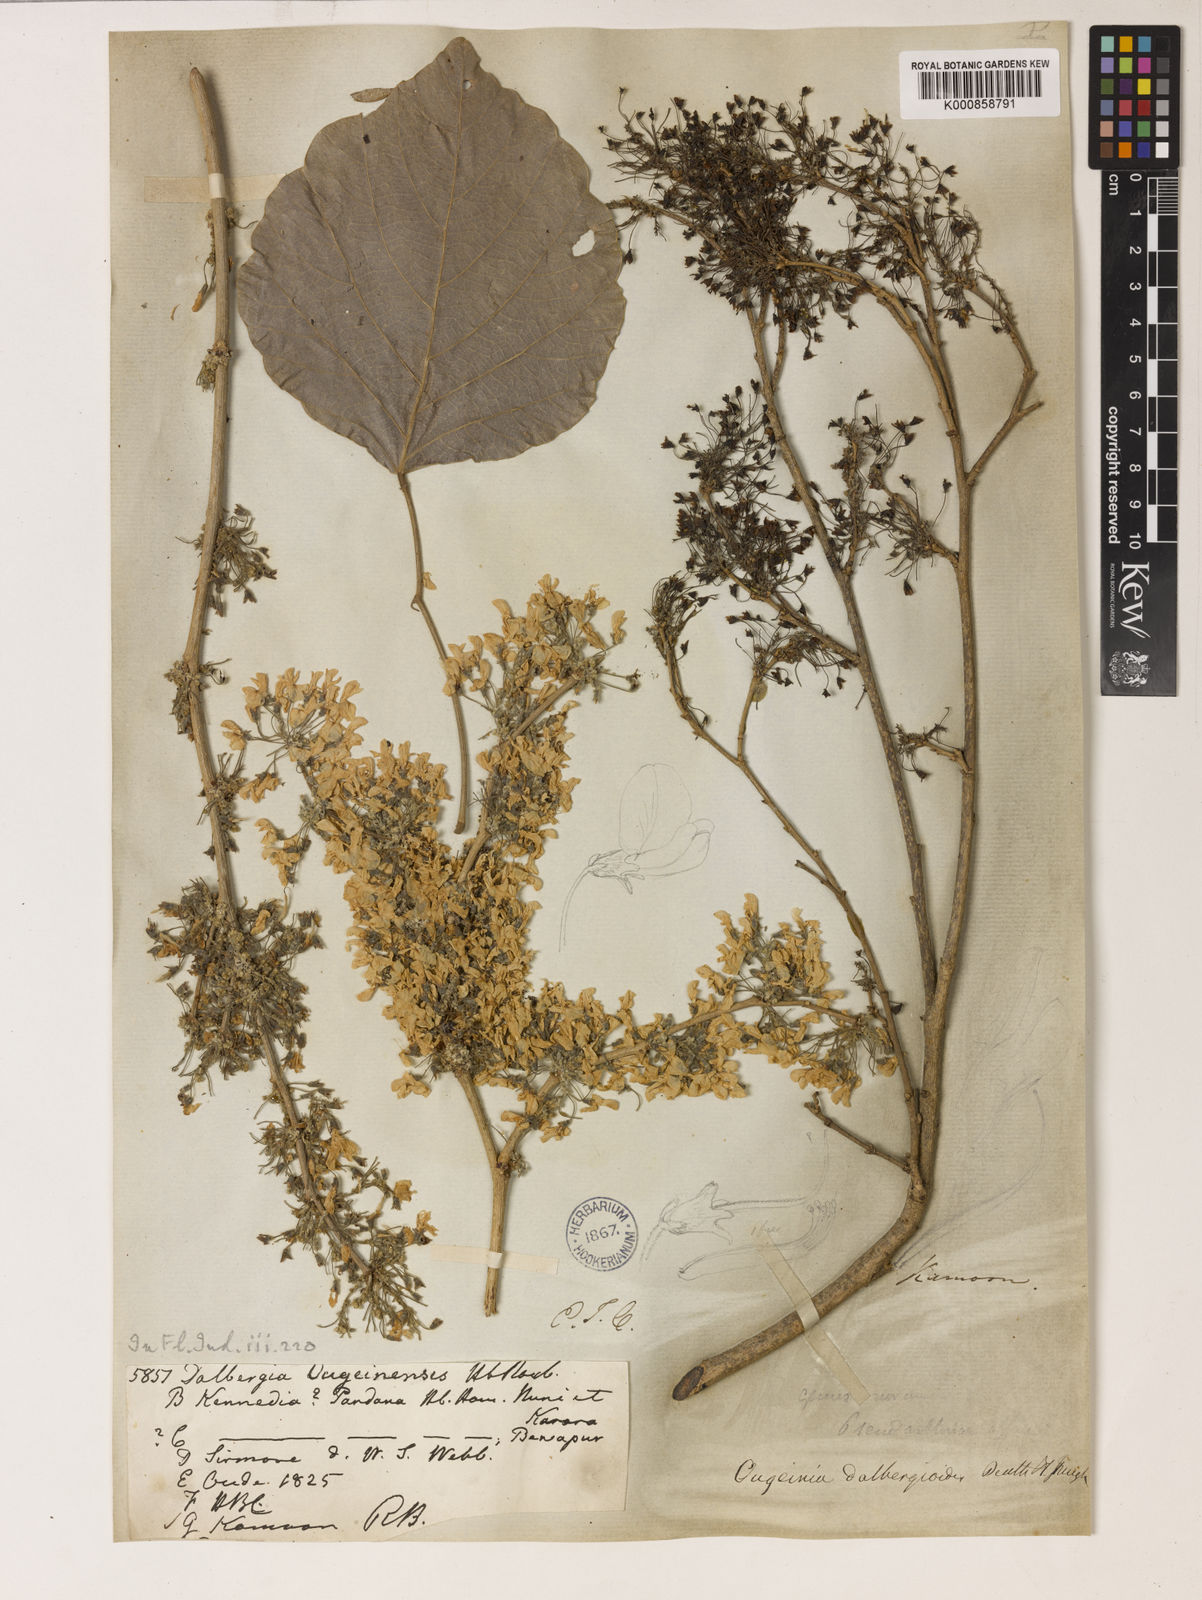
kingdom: Plantae
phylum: Tracheophyta
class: Magnoliopsida
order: Fabales
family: Fabaceae
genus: Ougeinia
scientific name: Ougeinia oojeinensis
